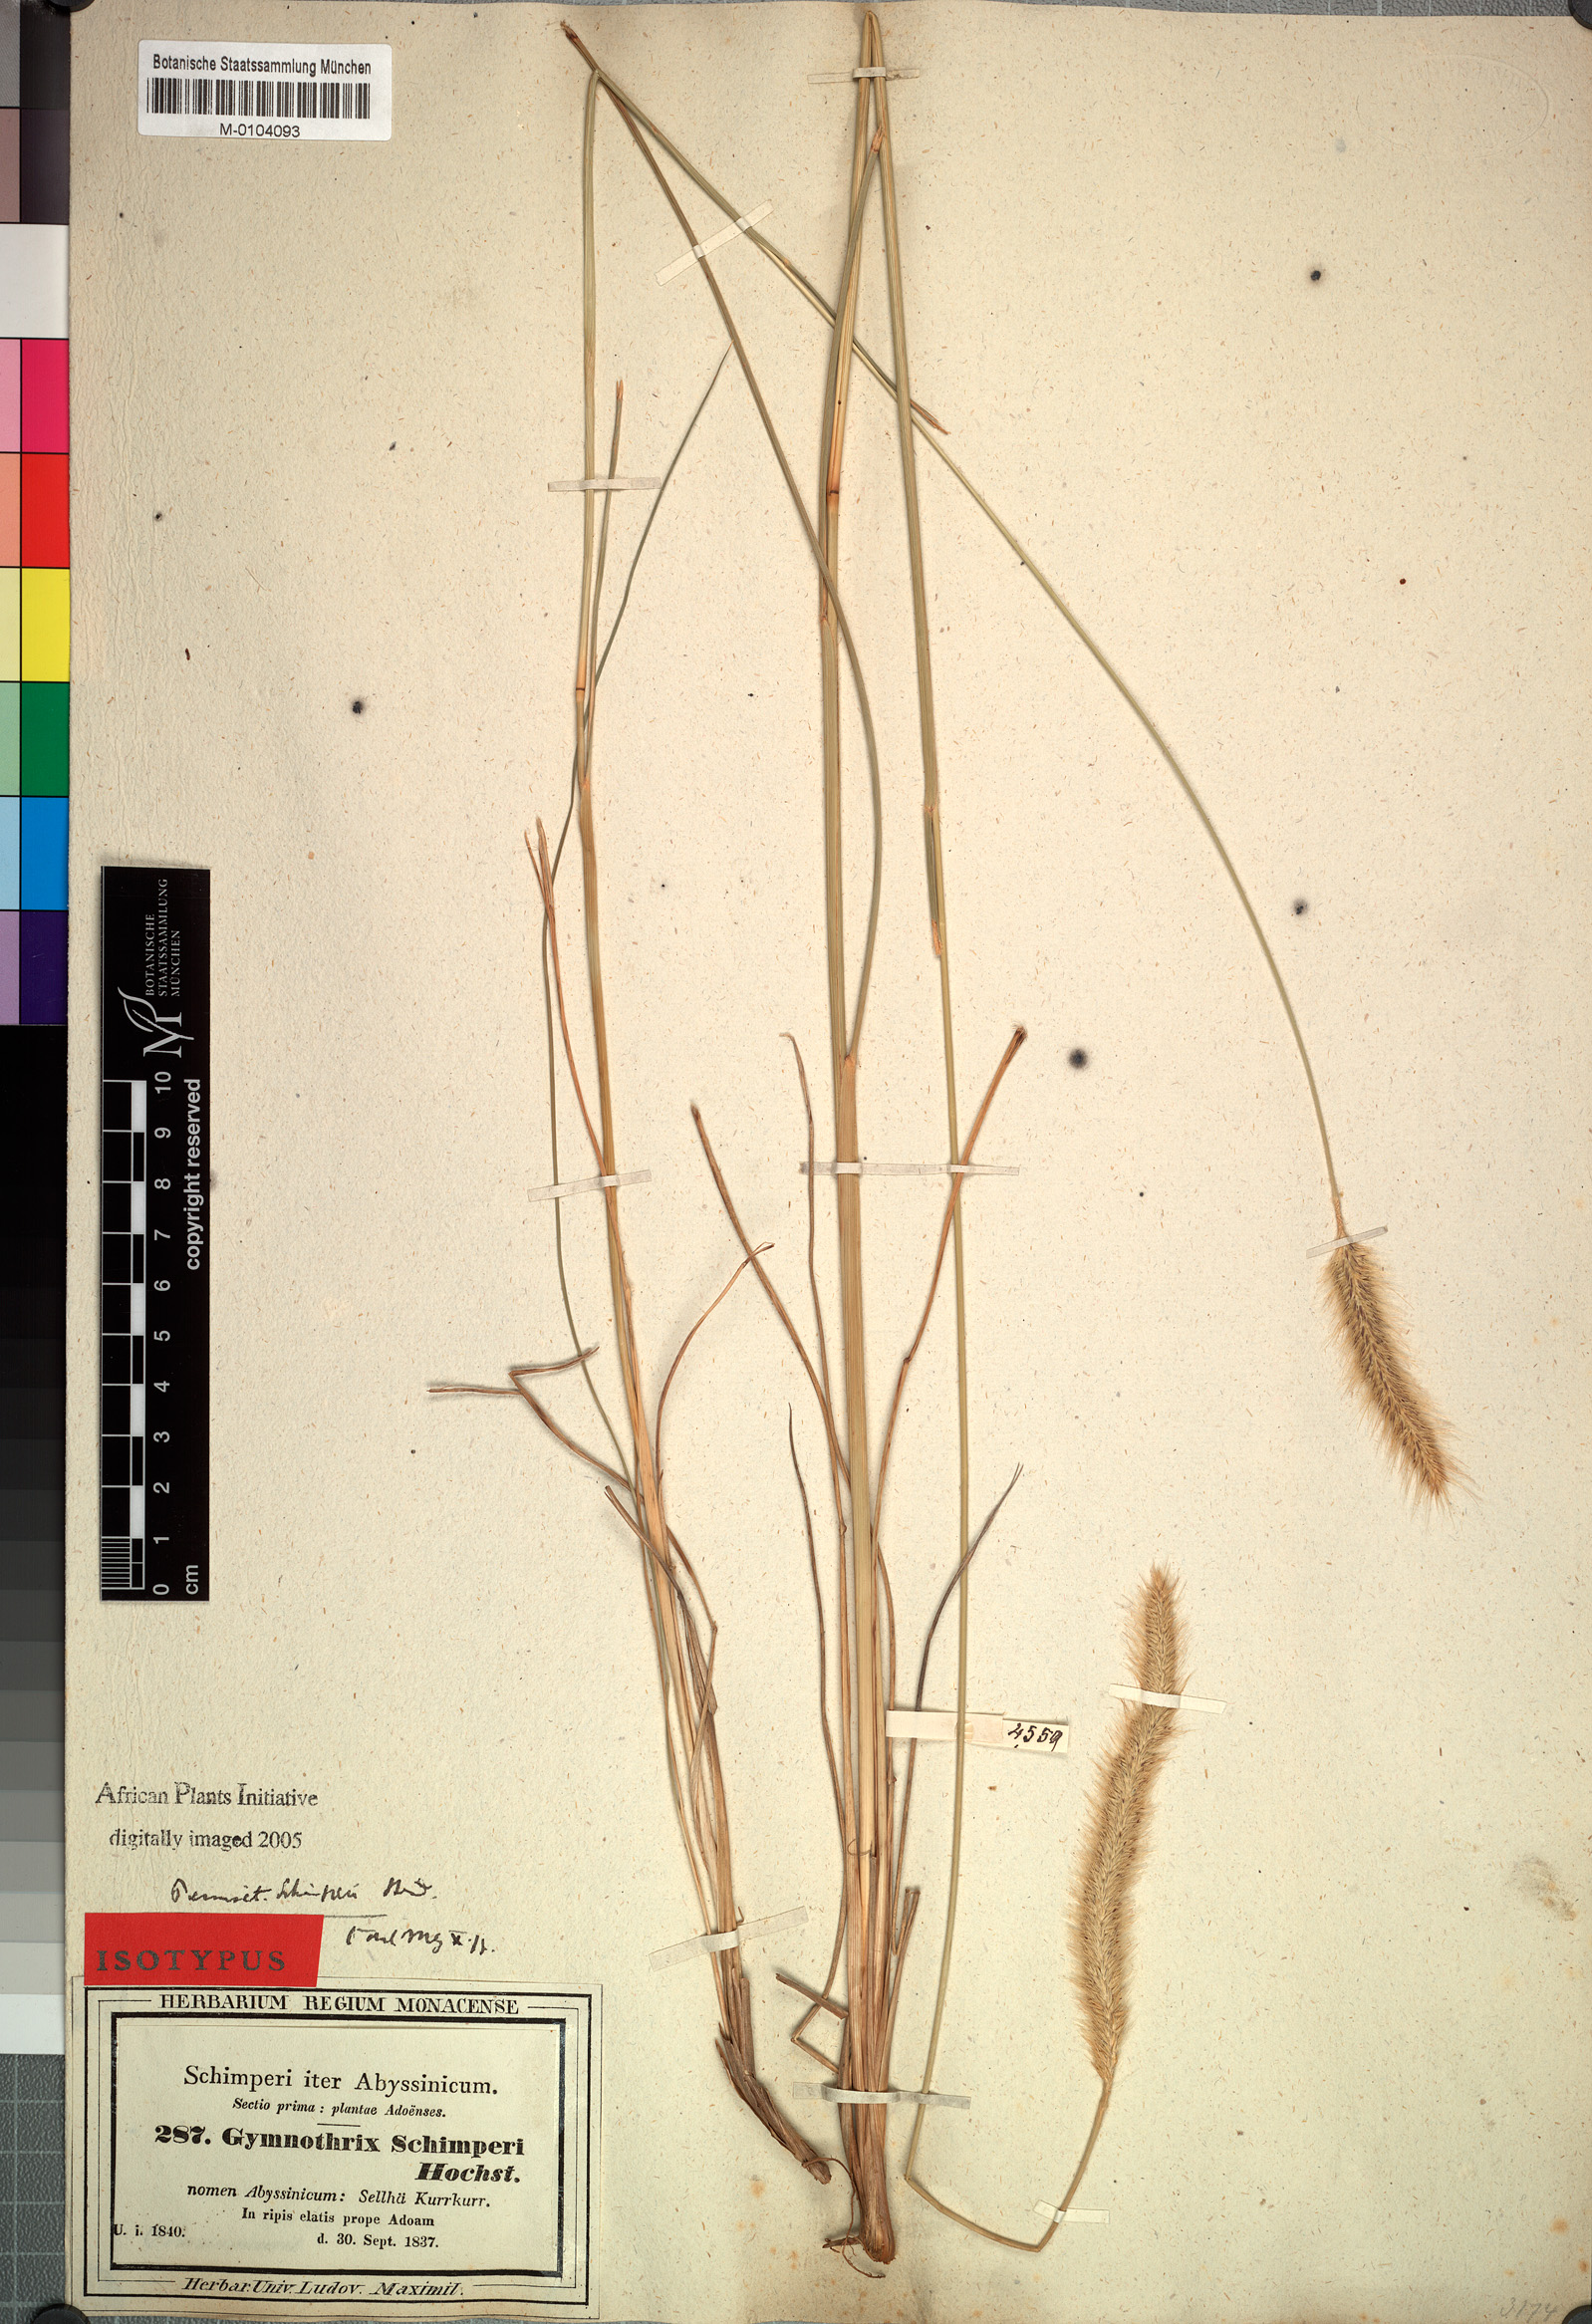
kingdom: Plantae
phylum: Tracheophyta
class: Liliopsida
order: Poales
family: Poaceae
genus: Cenchrus
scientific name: Cenchrus sphacelatus
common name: Bulgras
